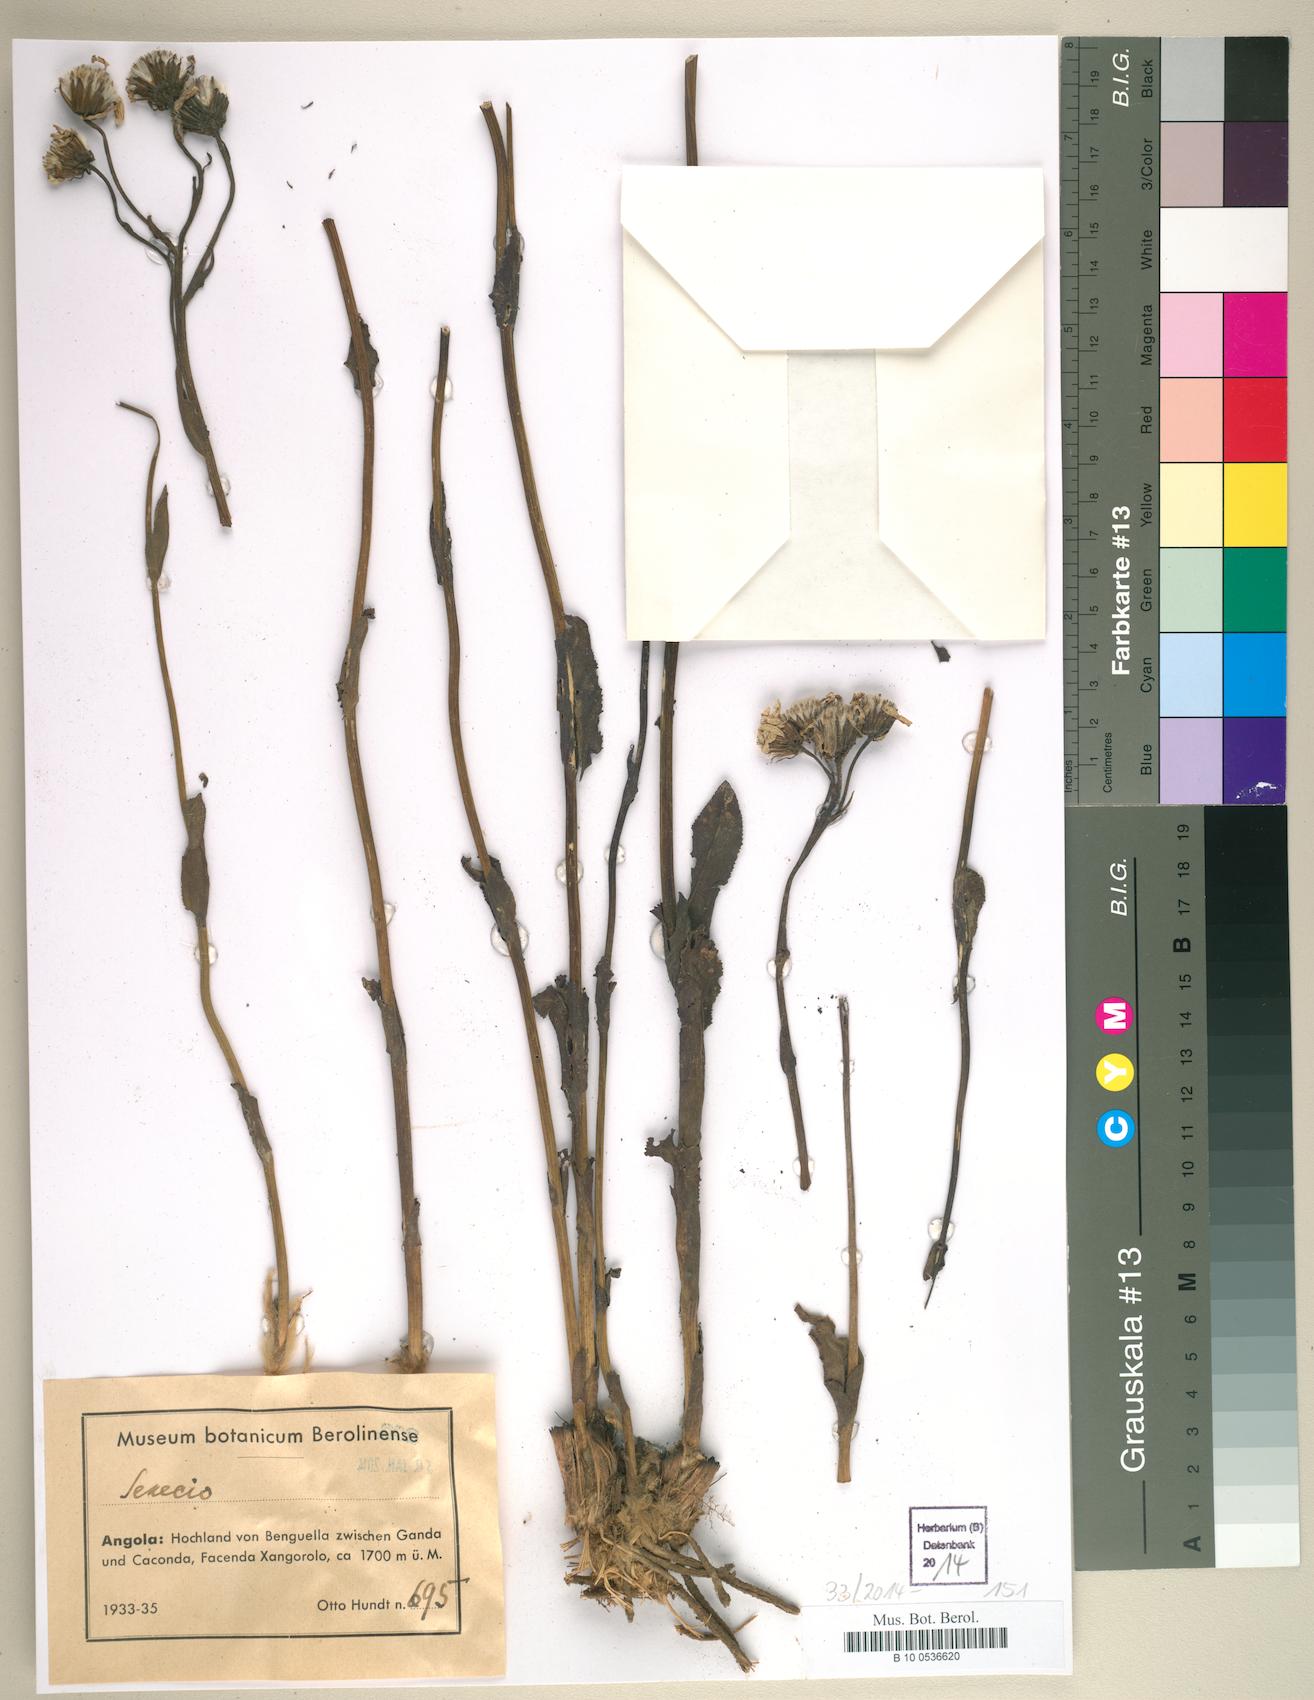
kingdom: Plantae
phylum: Tracheophyta
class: Magnoliopsida
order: Asterales
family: Asteraceae
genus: Senecio
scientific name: Senecio
